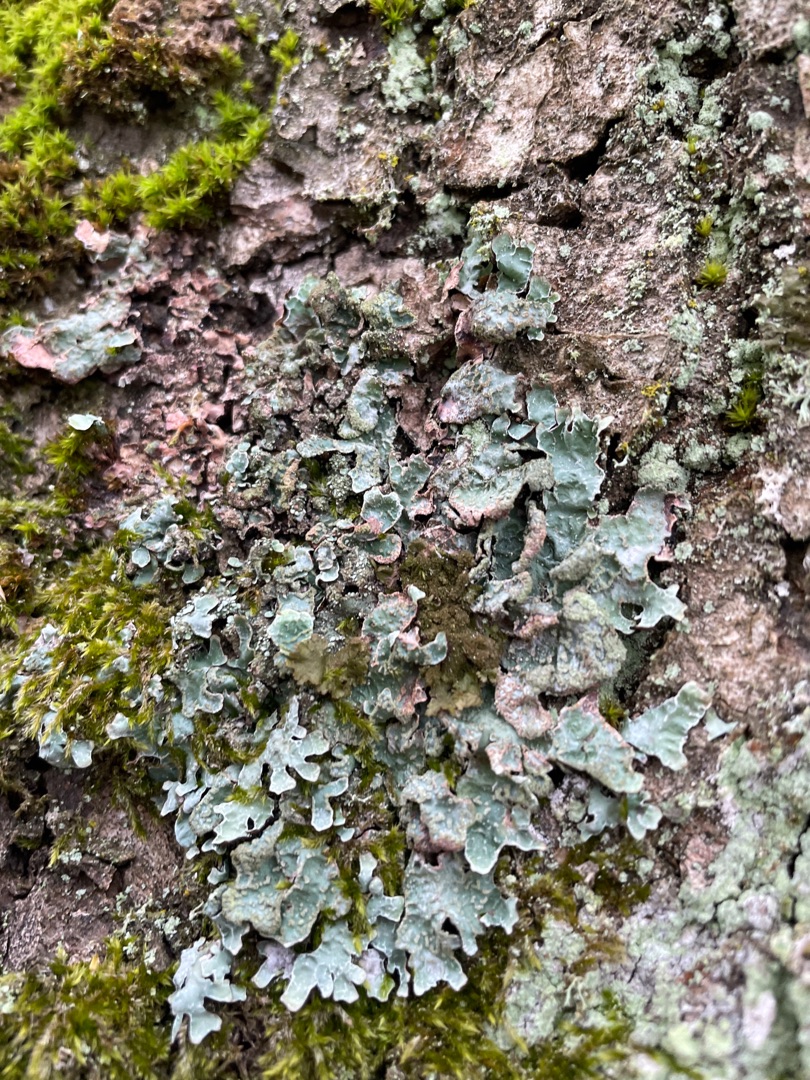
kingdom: Fungi
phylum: Ascomycota
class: Lecanoromycetes
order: Lecanorales
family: Parmeliaceae
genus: Parmelia
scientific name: Parmelia sulcata
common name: Rynket skållav
